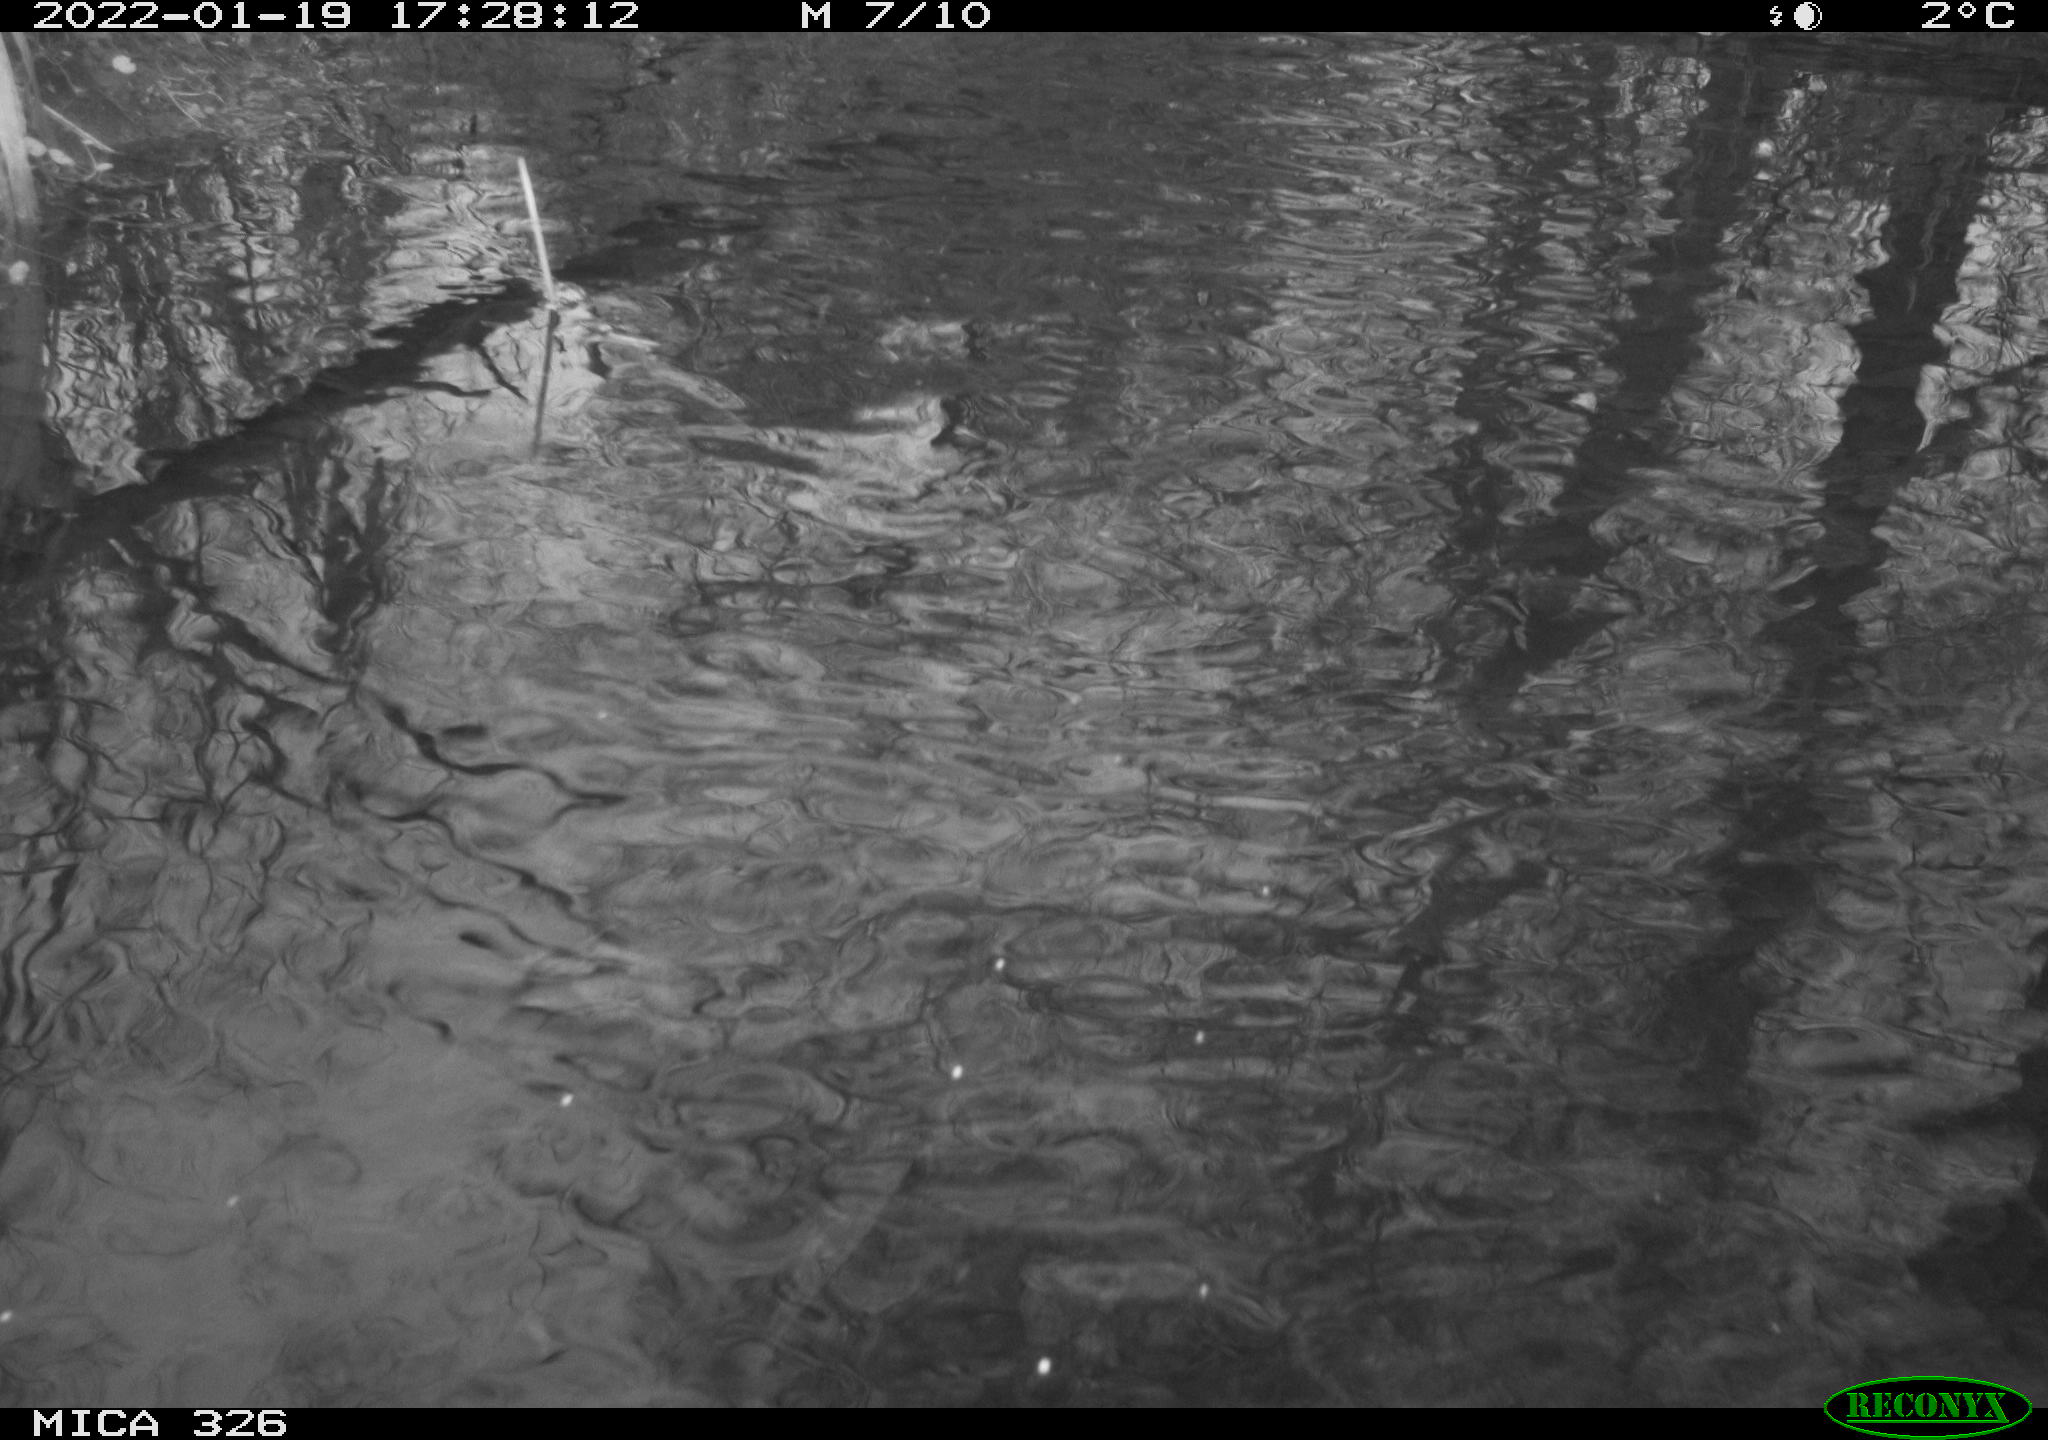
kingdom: Animalia
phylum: Chordata
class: Aves
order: Gruiformes
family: Rallidae
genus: Gallinula
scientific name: Gallinula chloropus
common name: Common moorhen
